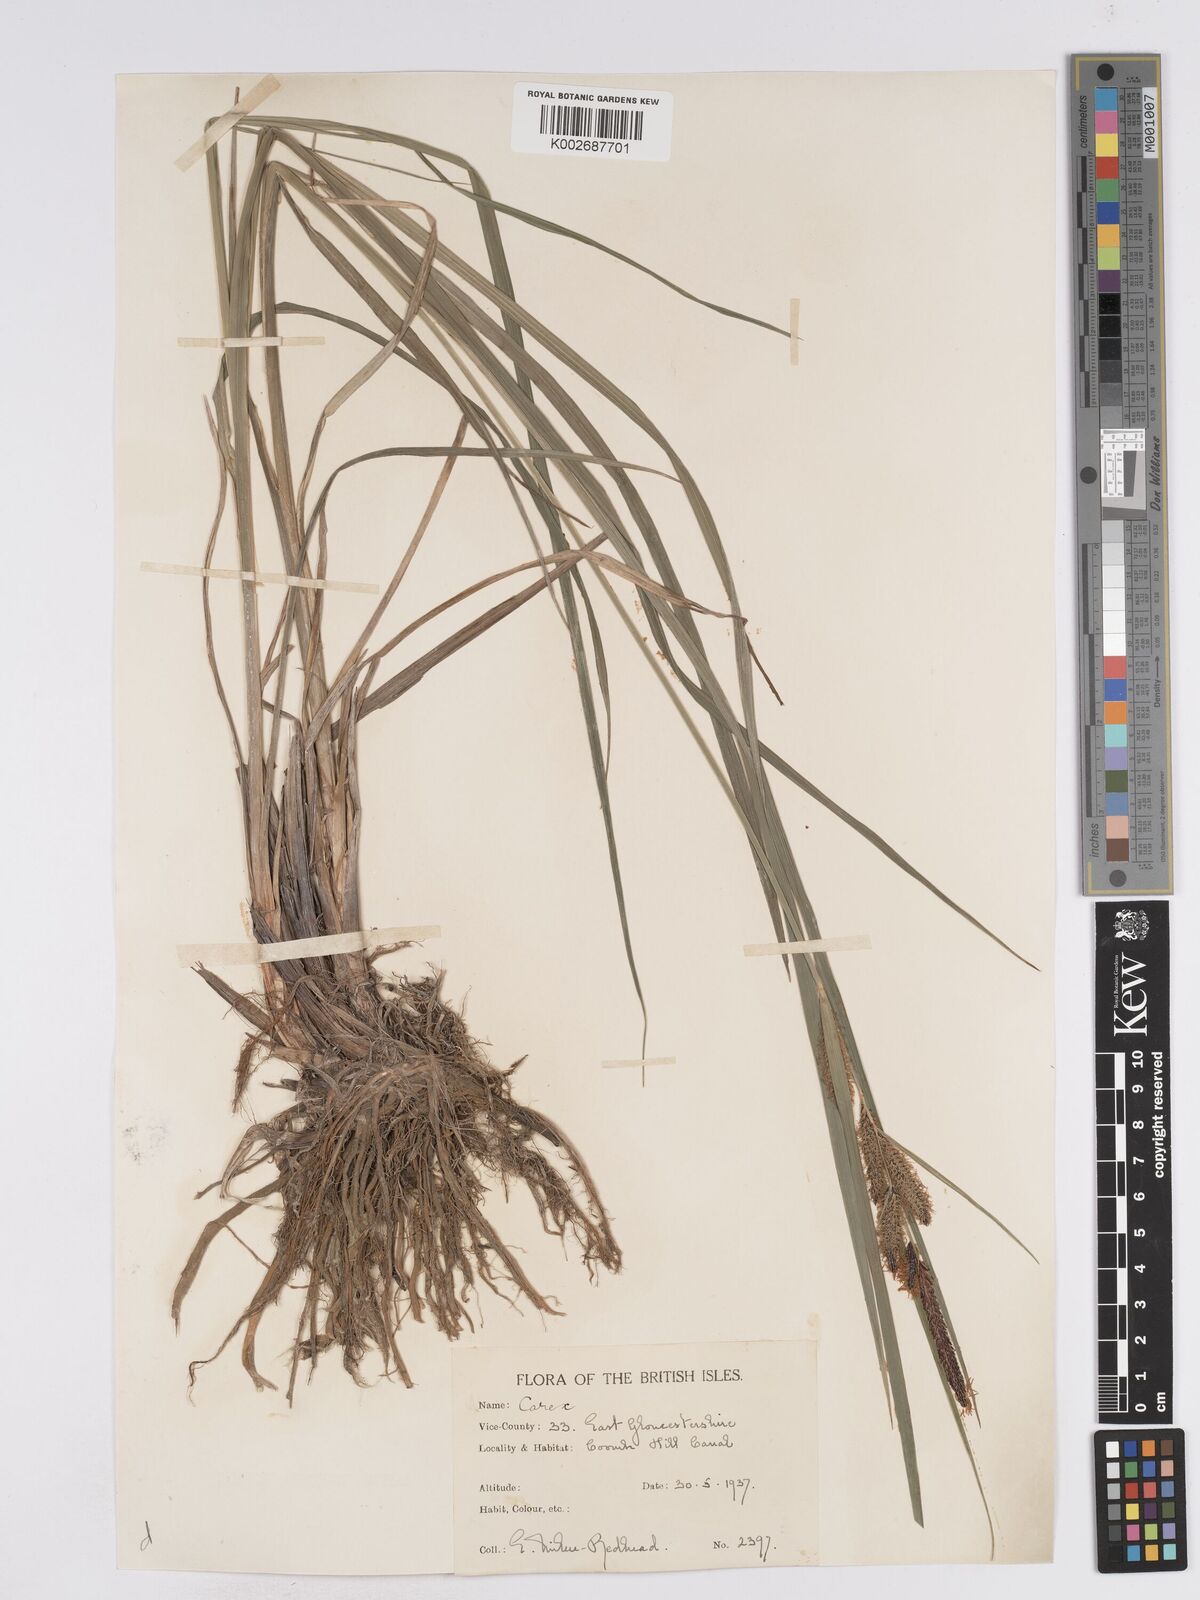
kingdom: Plantae
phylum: Tracheophyta
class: Liliopsida
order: Poales
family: Cyperaceae
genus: Carex
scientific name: Carex acuta
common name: Slender tufted-sedge
